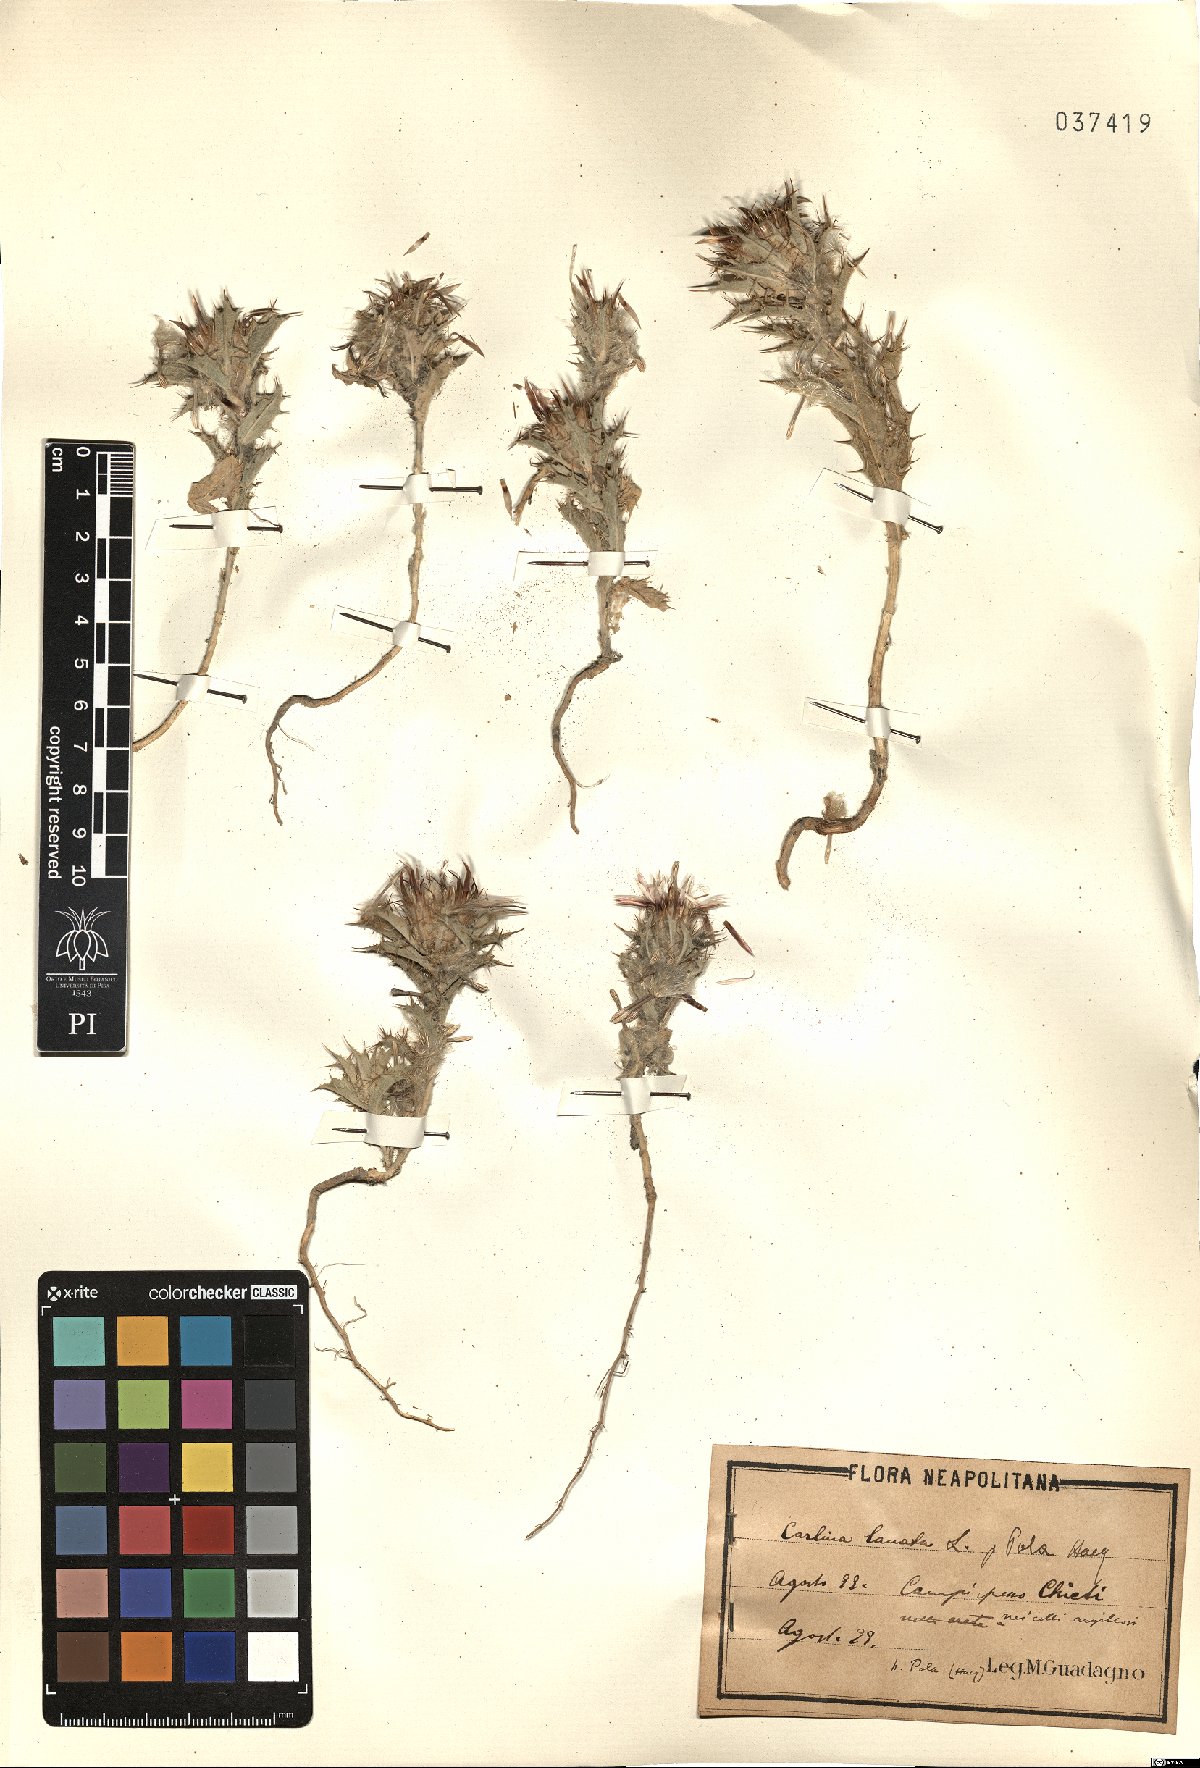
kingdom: Plantae
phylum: Tracheophyta
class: Magnoliopsida
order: Asterales
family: Asteraceae
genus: Carlina
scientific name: Carlina lanata
